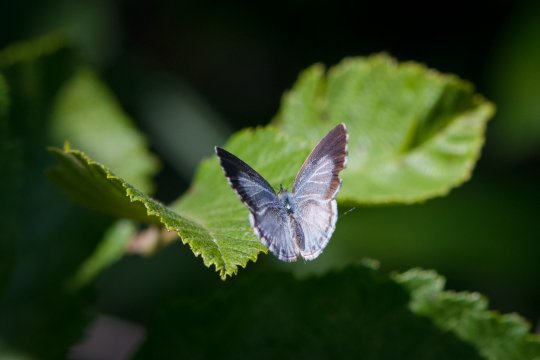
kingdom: Animalia
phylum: Arthropoda
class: Insecta
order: Lepidoptera
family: Lycaenidae
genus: Celastrina
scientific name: Celastrina lucia
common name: Northern Spring Azure
